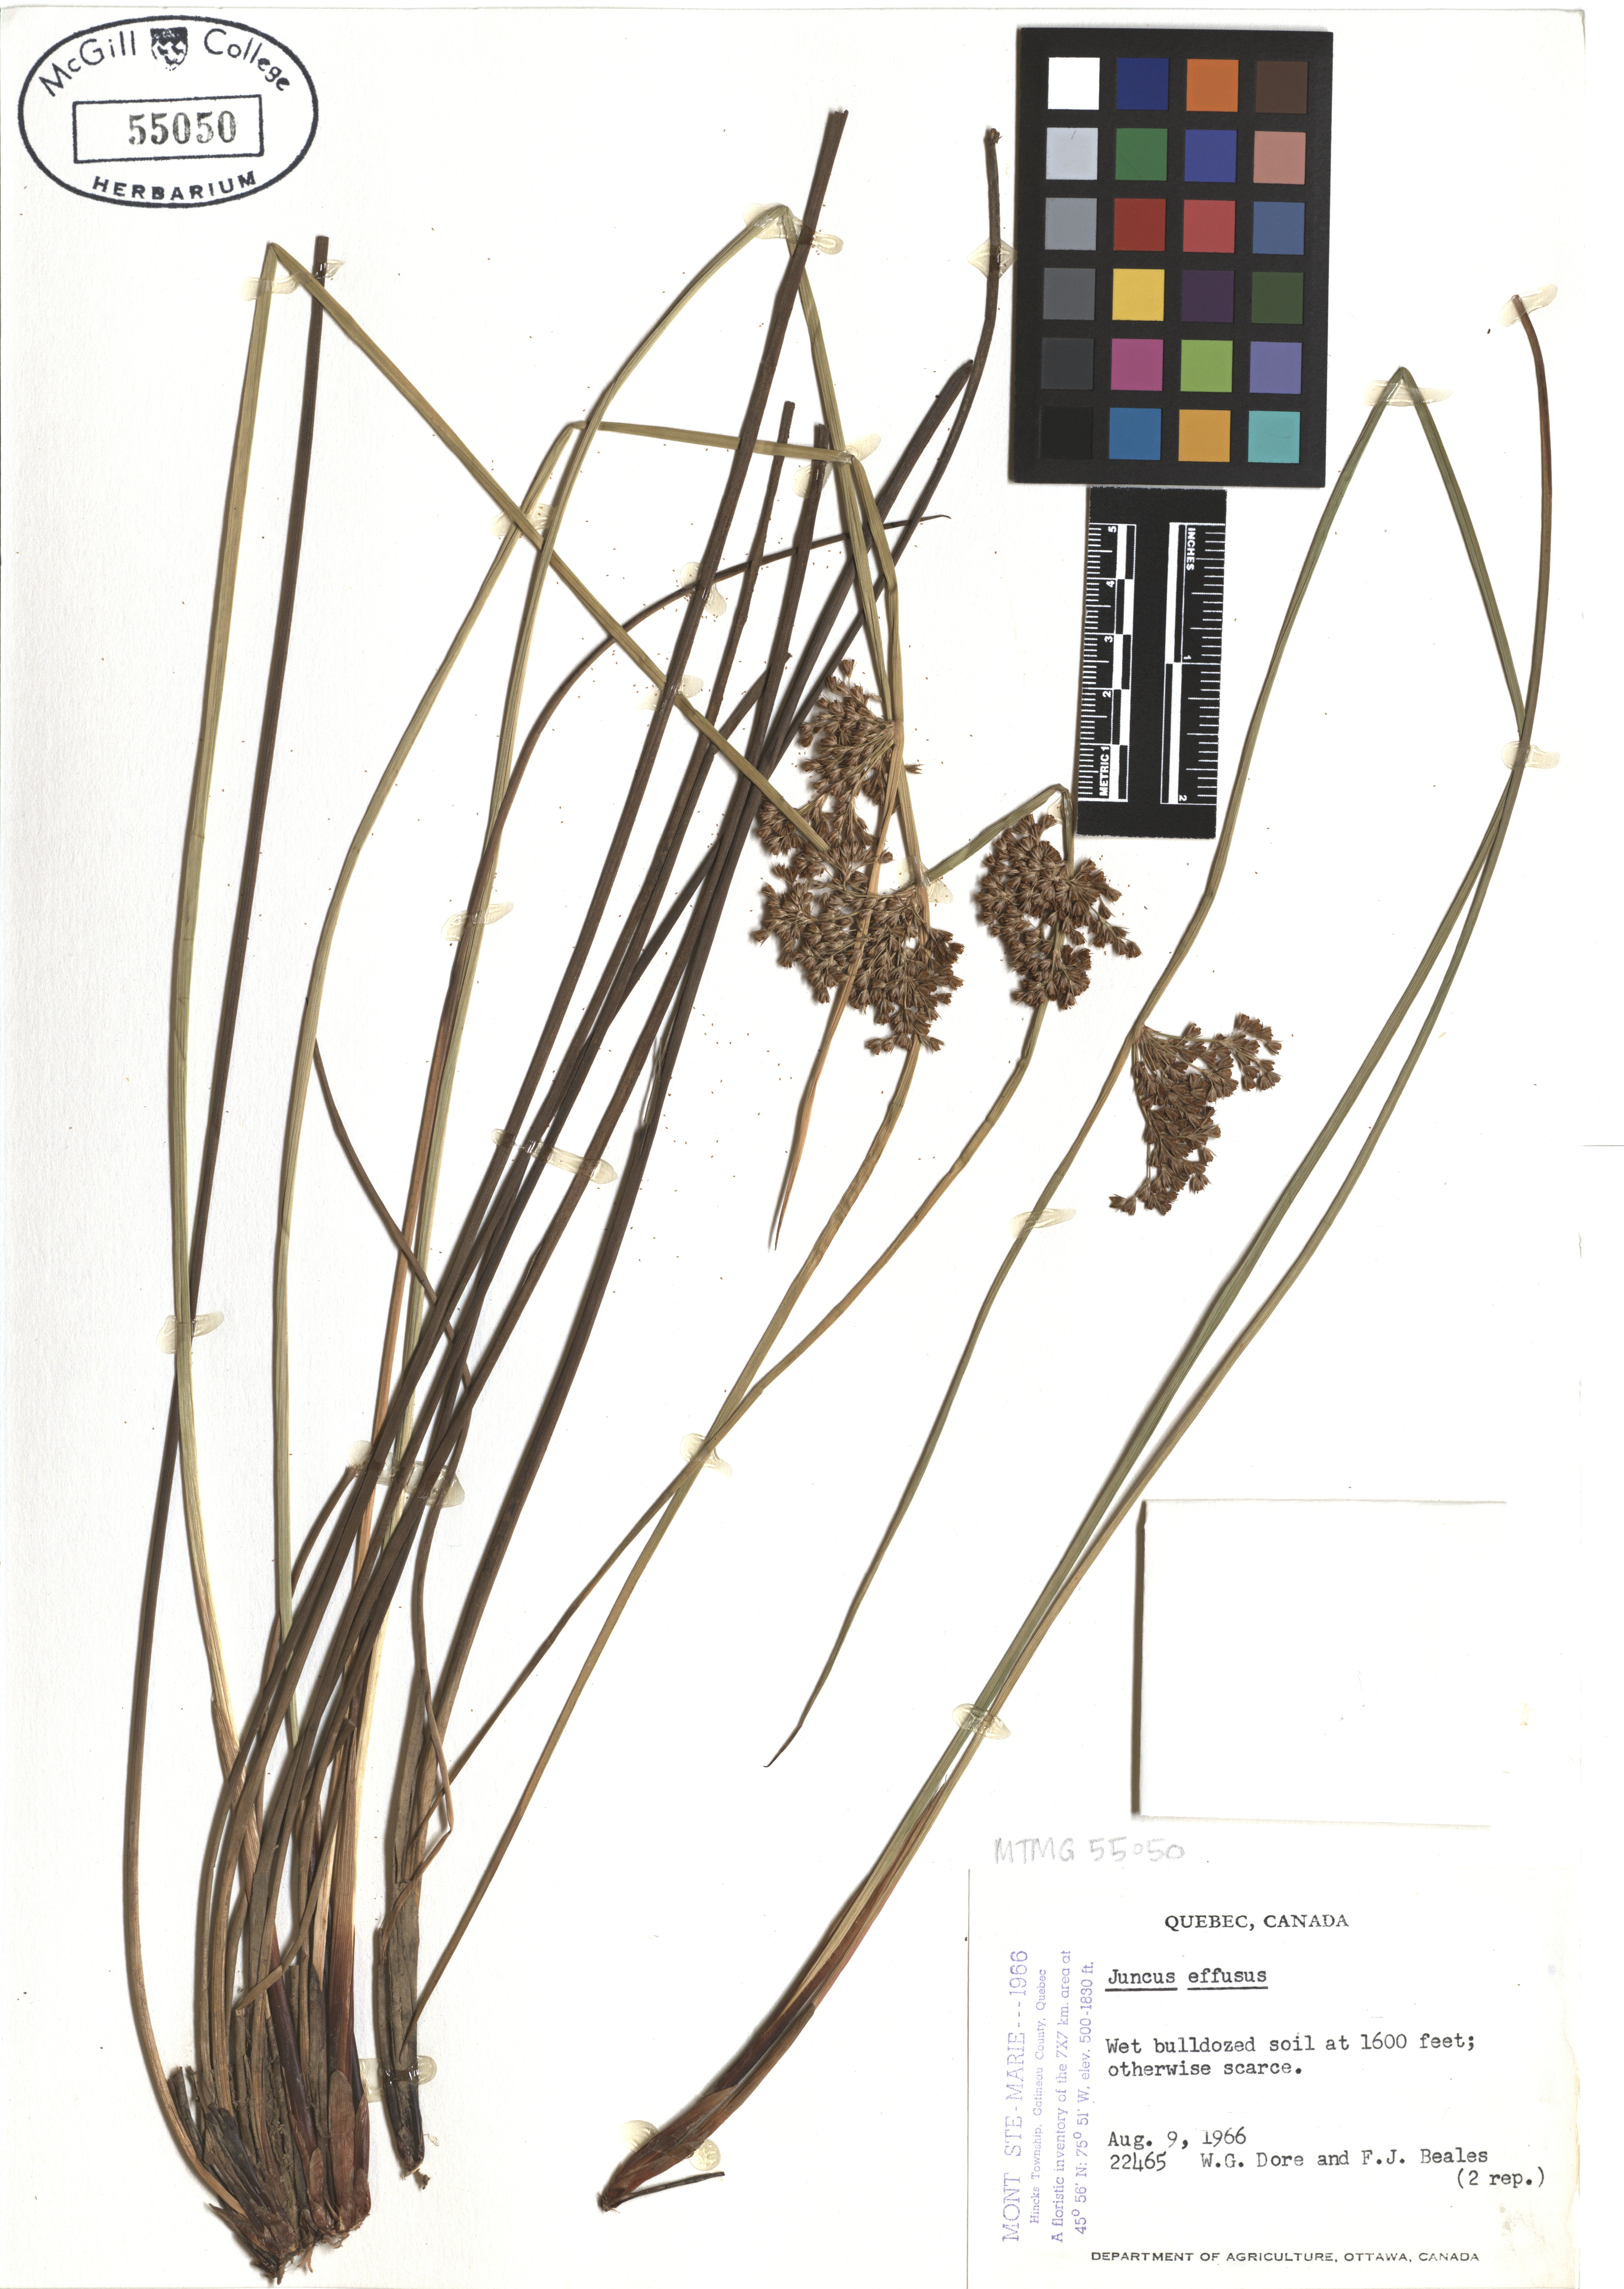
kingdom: Plantae
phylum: Tracheophyta
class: Liliopsida
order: Poales
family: Juncaceae
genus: Juncus
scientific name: Juncus effusus
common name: Soft rush
